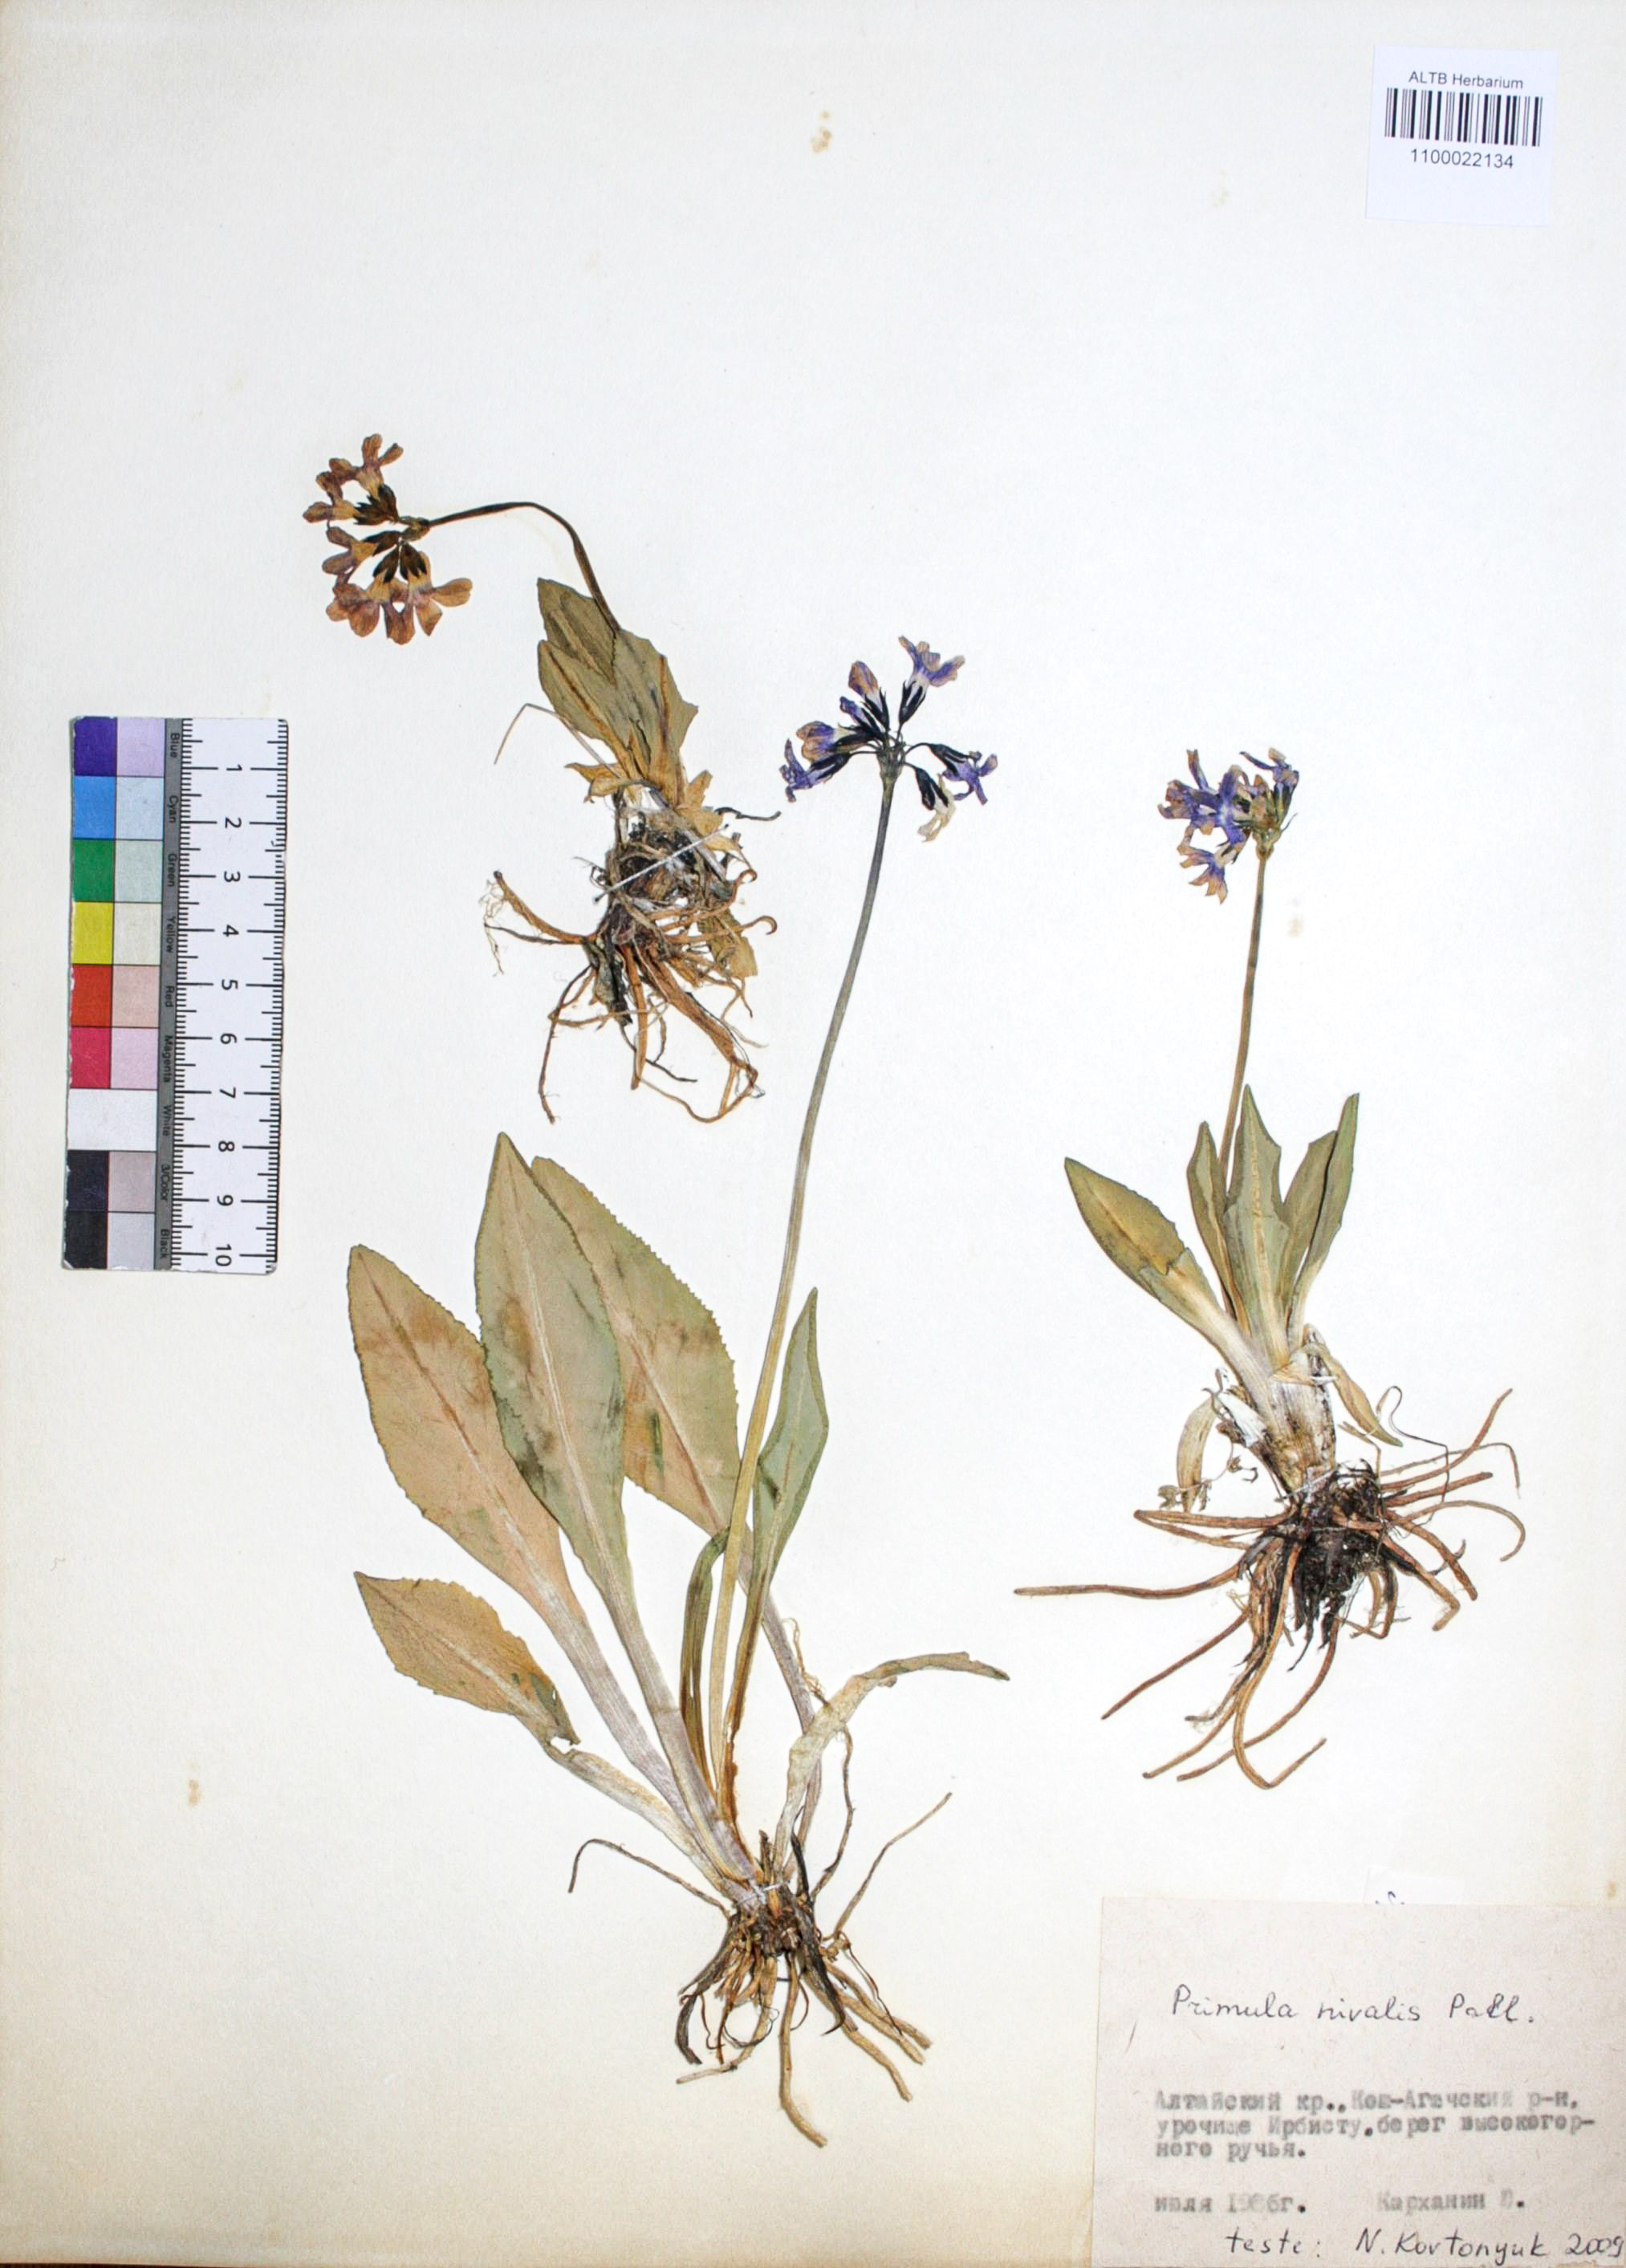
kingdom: Plantae
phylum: Tracheophyta
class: Magnoliopsida
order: Ericales
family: Primulaceae
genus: Primula
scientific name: Primula nivalis
